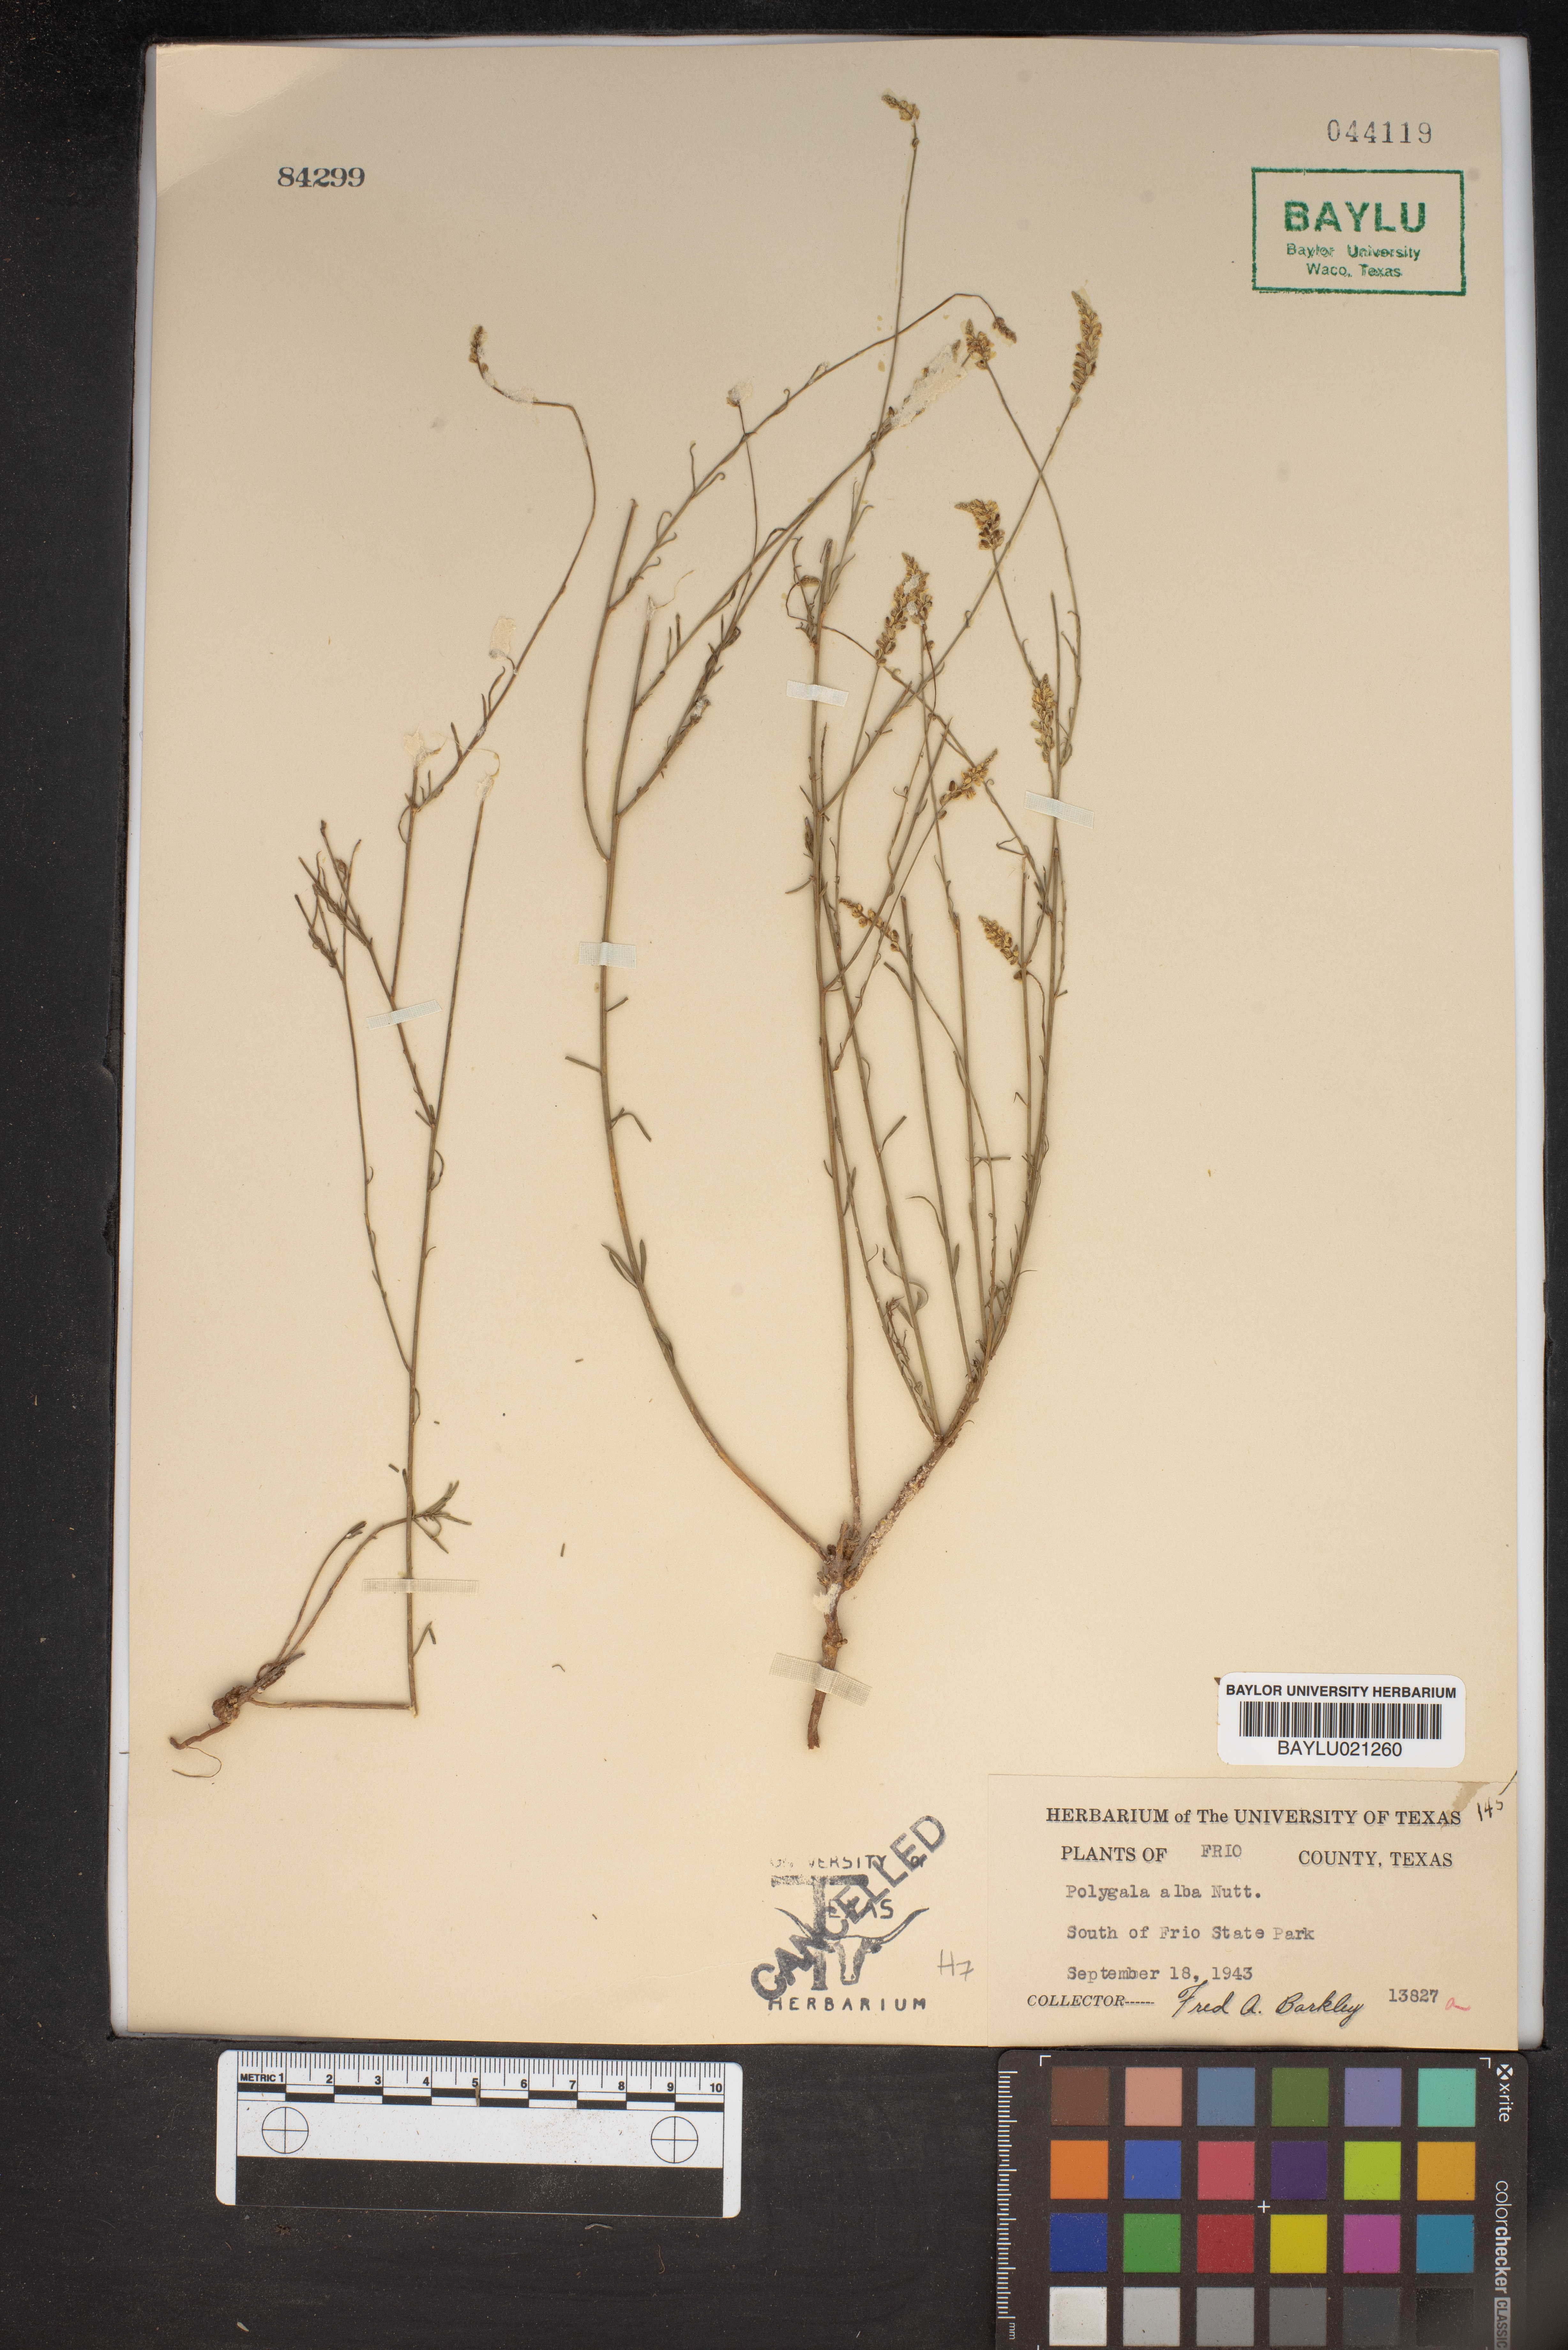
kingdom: Plantae
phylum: Tracheophyta
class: Magnoliopsida
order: Fabales
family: Polygalaceae
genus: Polygala
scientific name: Polygala alba
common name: White milkwort
